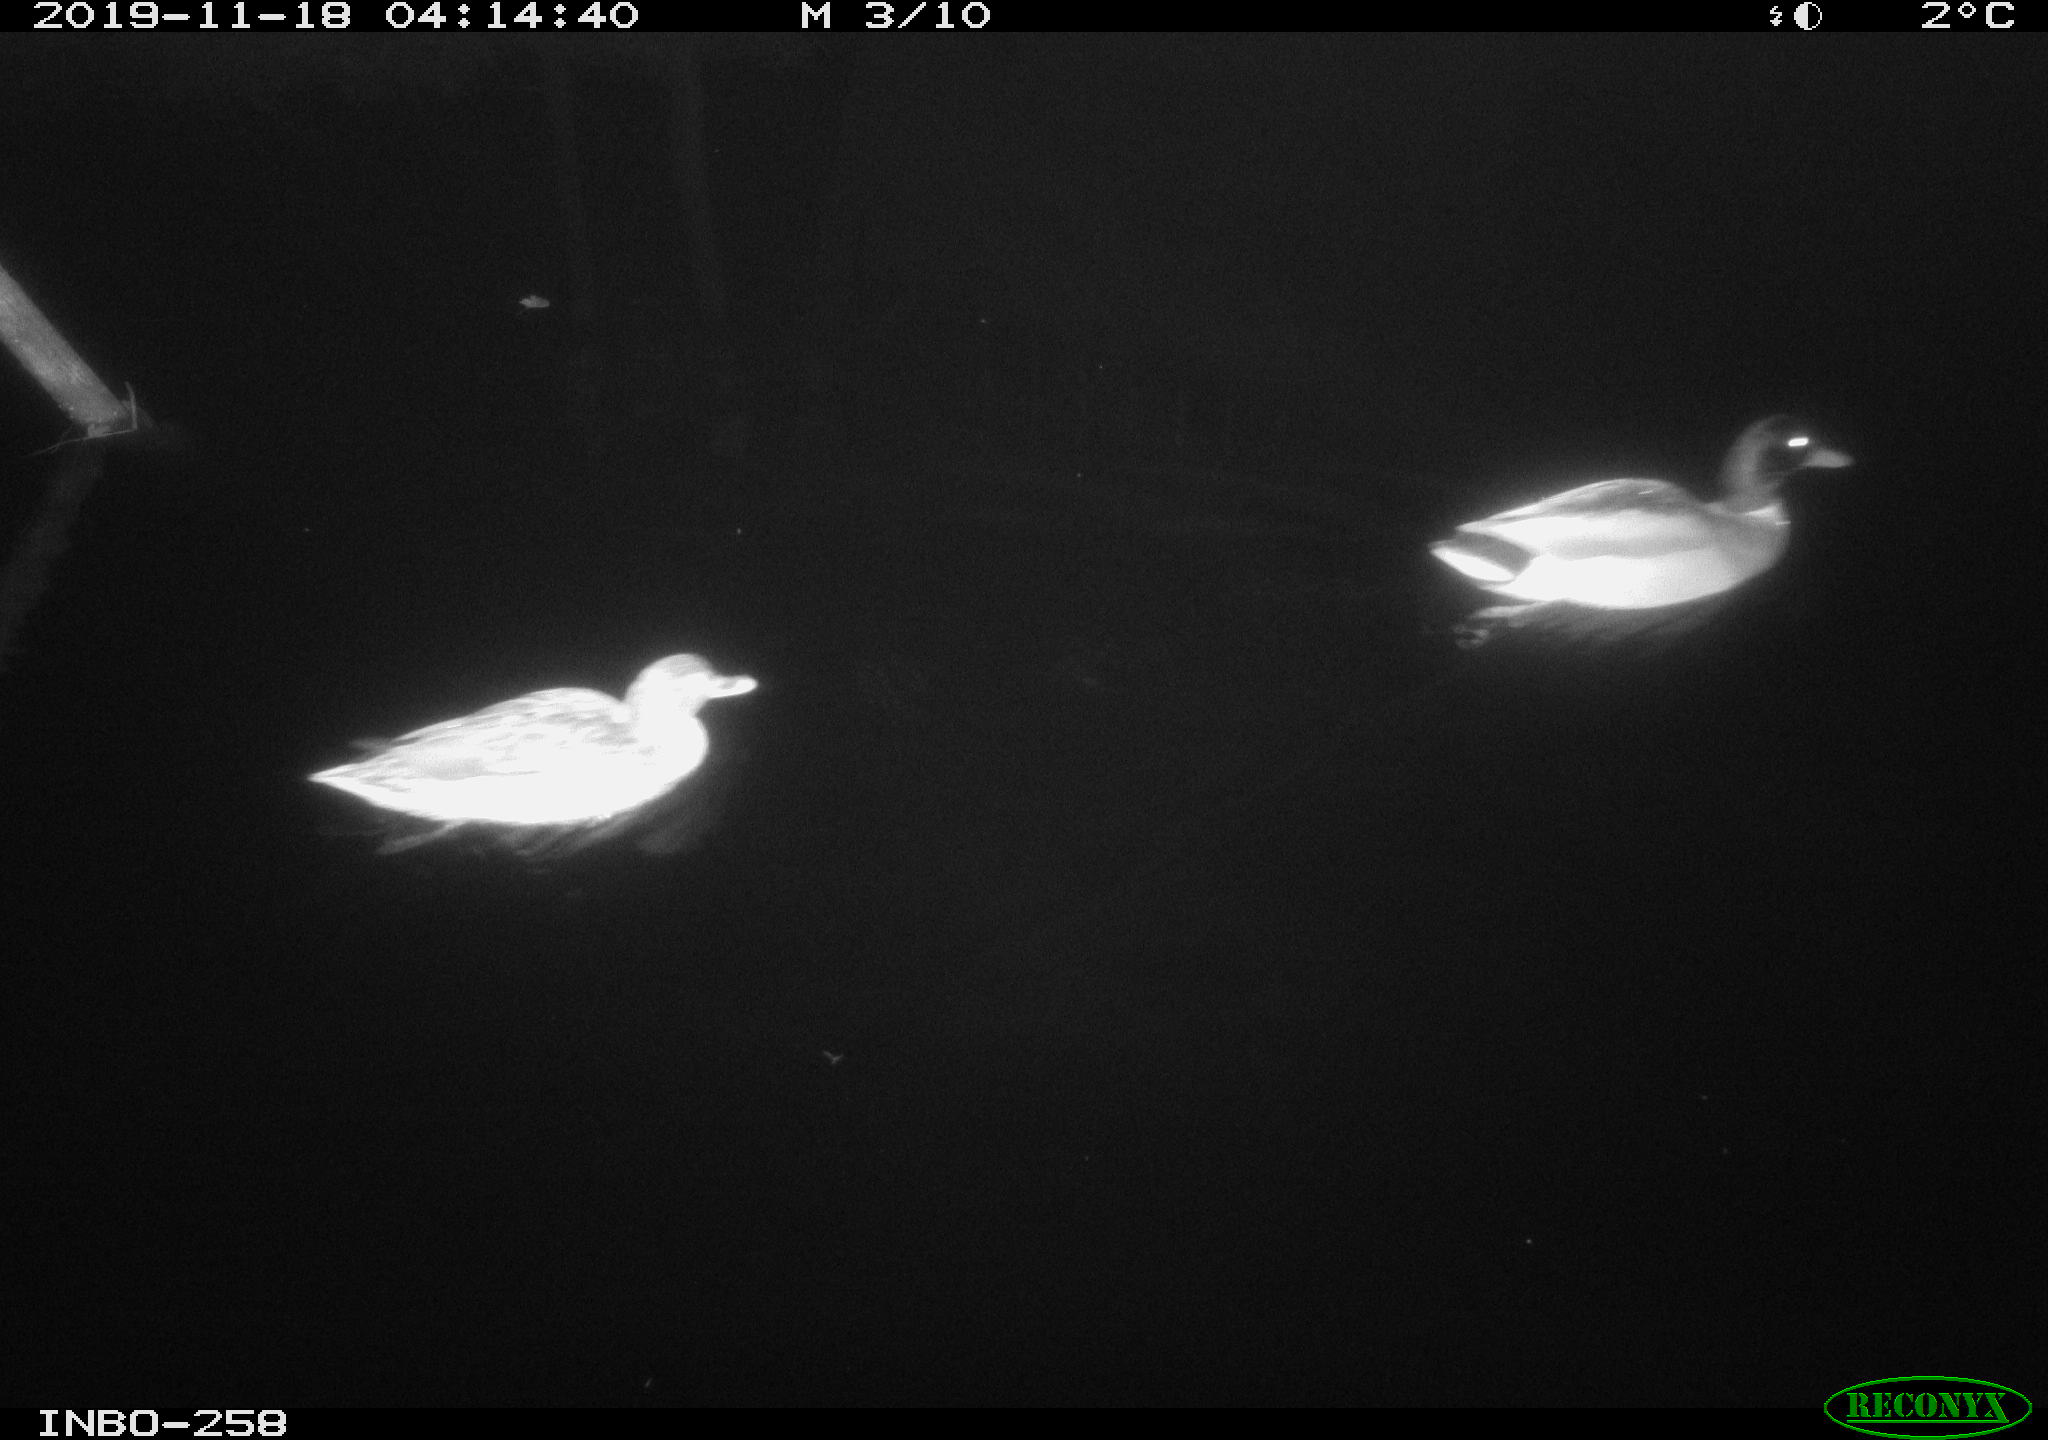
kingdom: Animalia
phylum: Chordata
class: Aves
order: Anseriformes
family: Anatidae
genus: Anas
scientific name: Anas platyrhynchos
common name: Mallard
